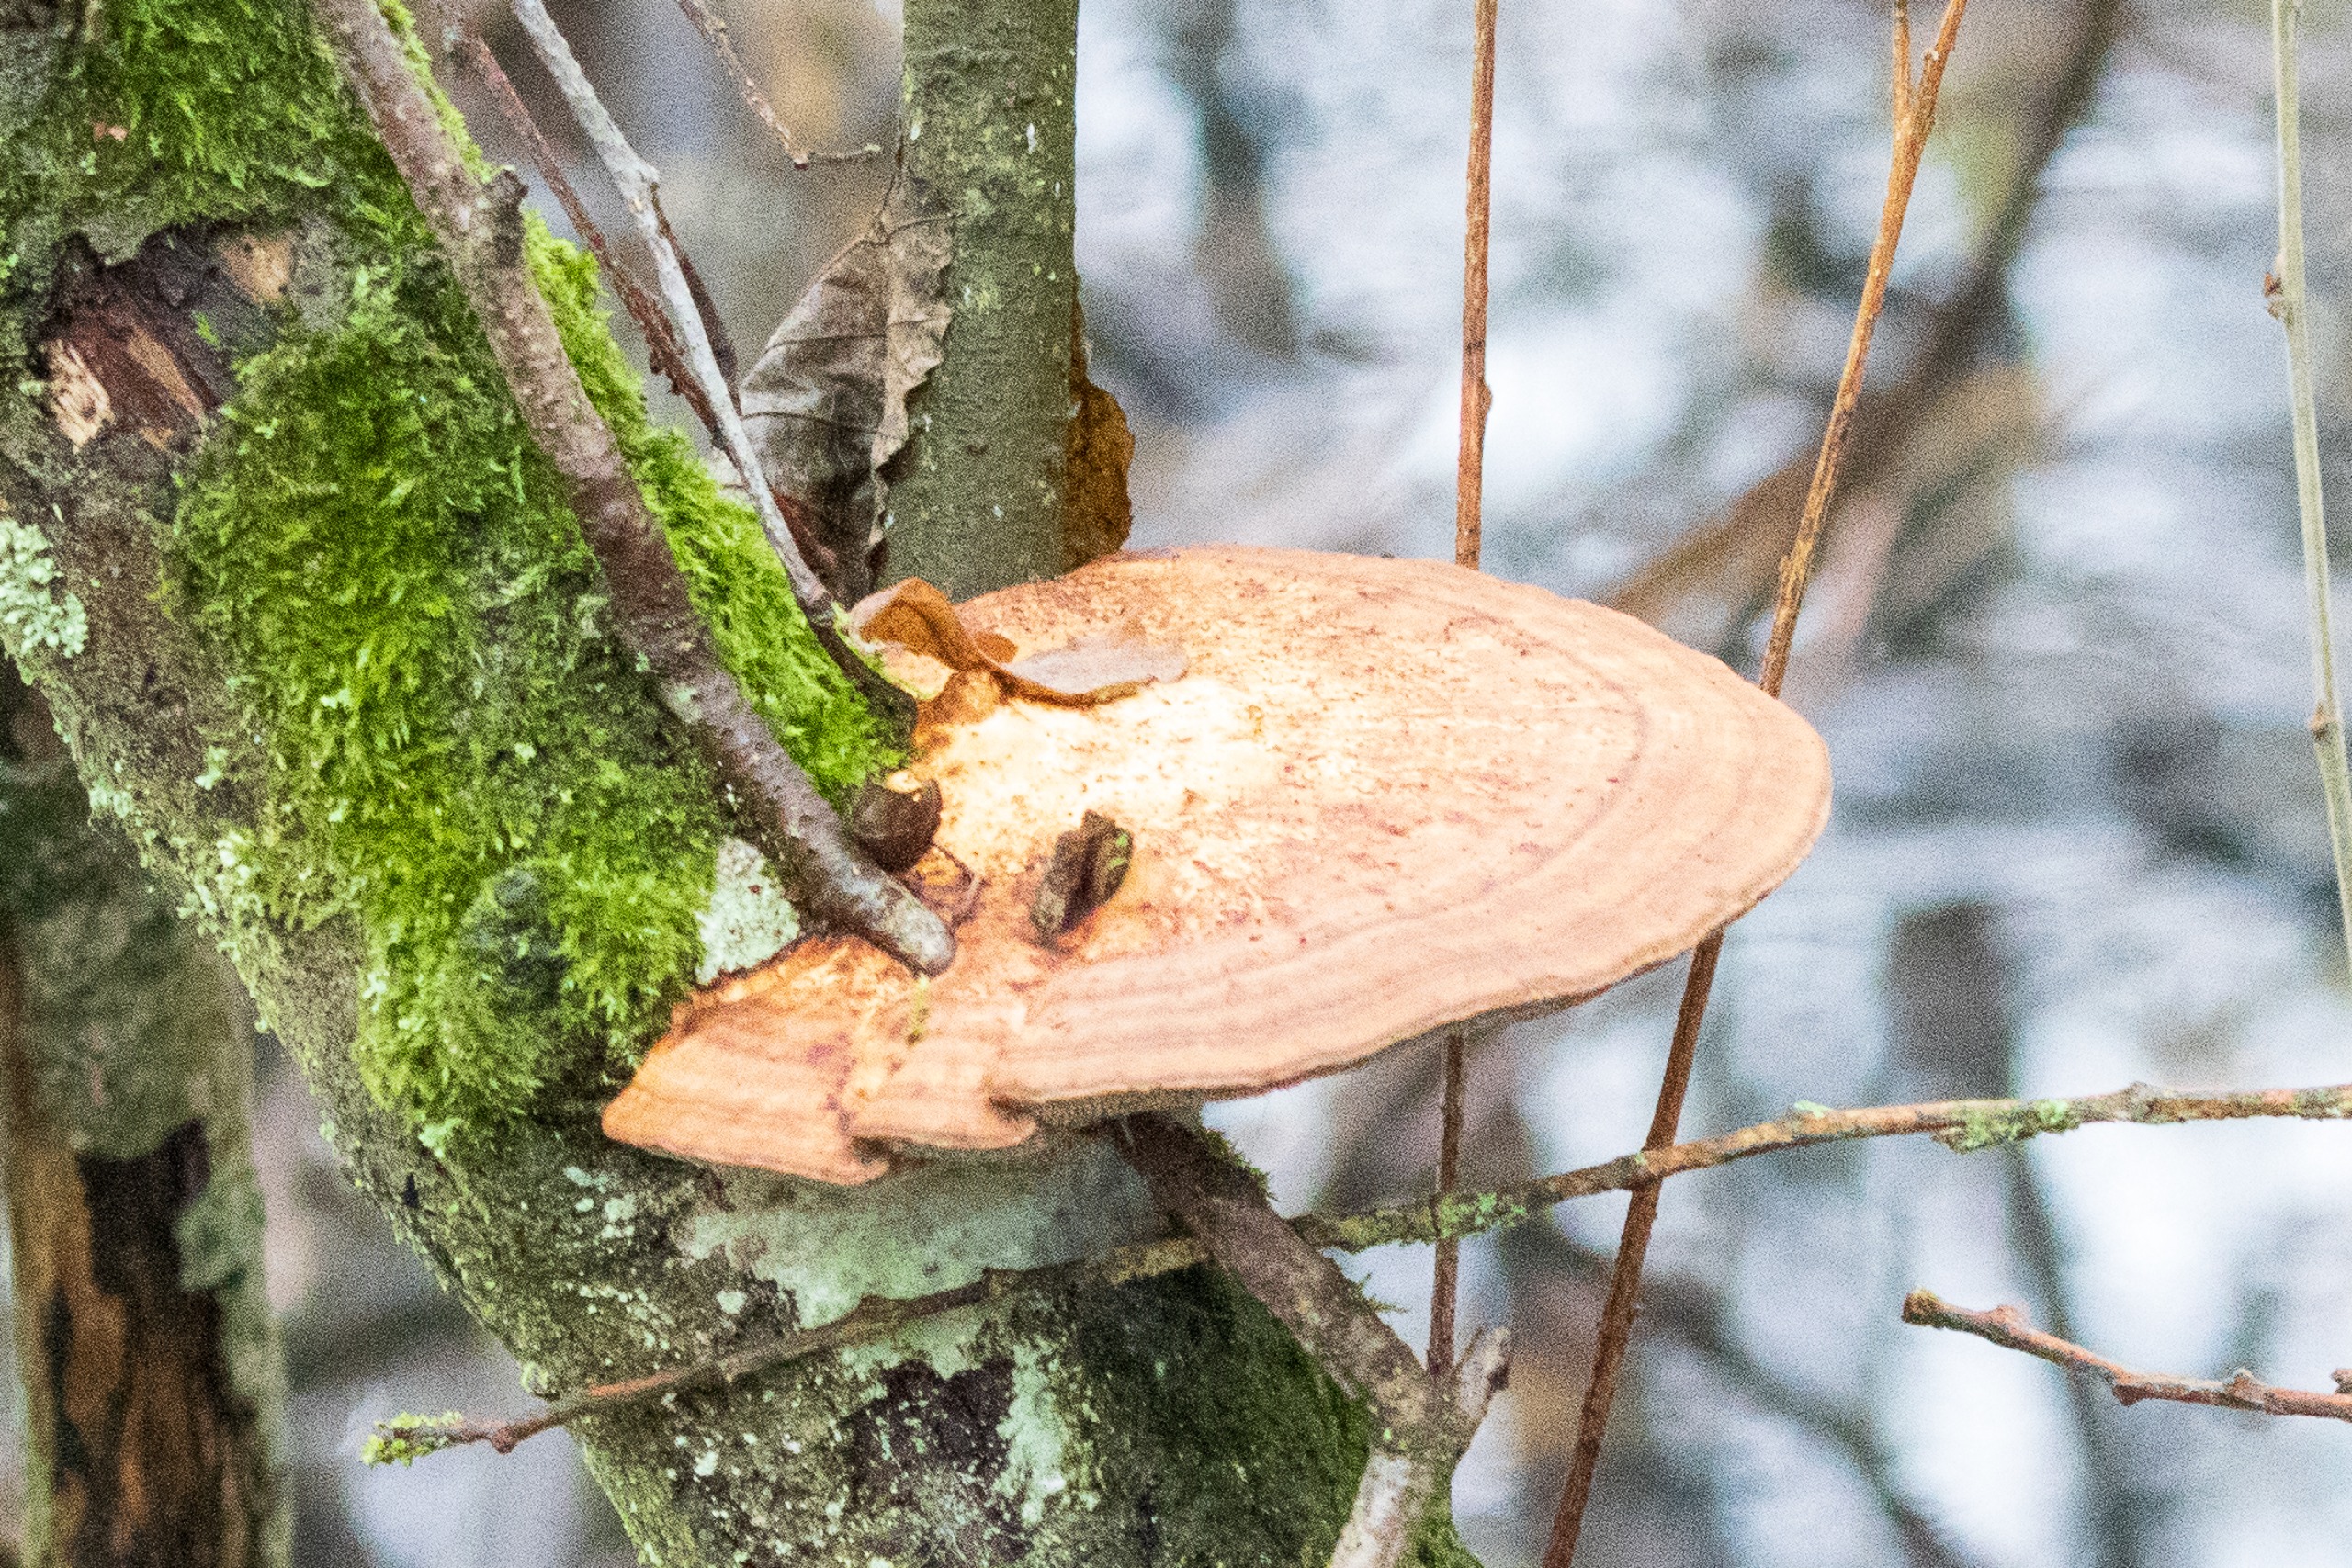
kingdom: Fungi
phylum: Basidiomycota
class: Agaricomycetes
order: Polyporales
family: Polyporaceae
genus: Daedaleopsis
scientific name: Daedaleopsis confragosa
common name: Rødmende læderporesvamp
